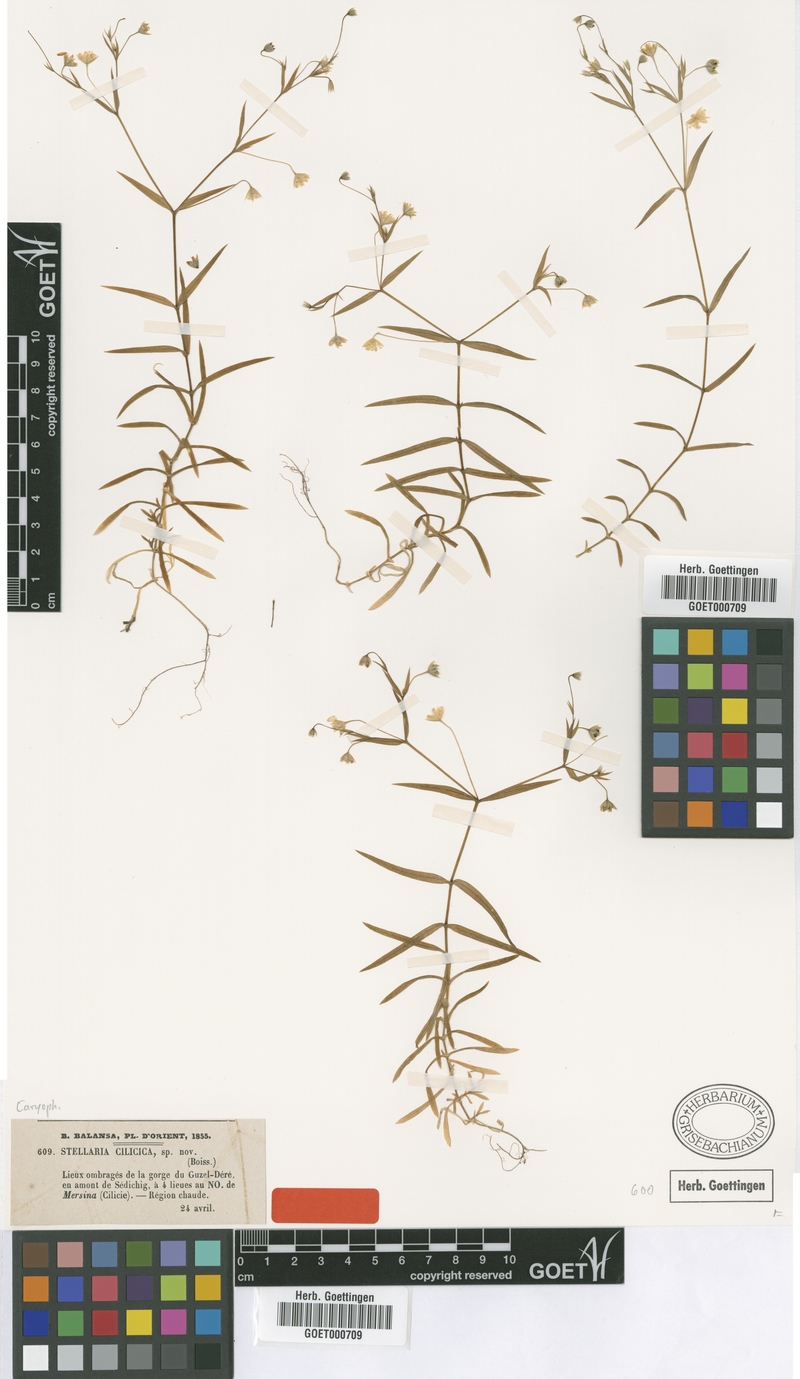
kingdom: Plantae
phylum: Tracheophyta
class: Magnoliopsida
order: Caryophyllales
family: Caryophyllaceae
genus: Rabelera
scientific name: Rabelera cilicica
